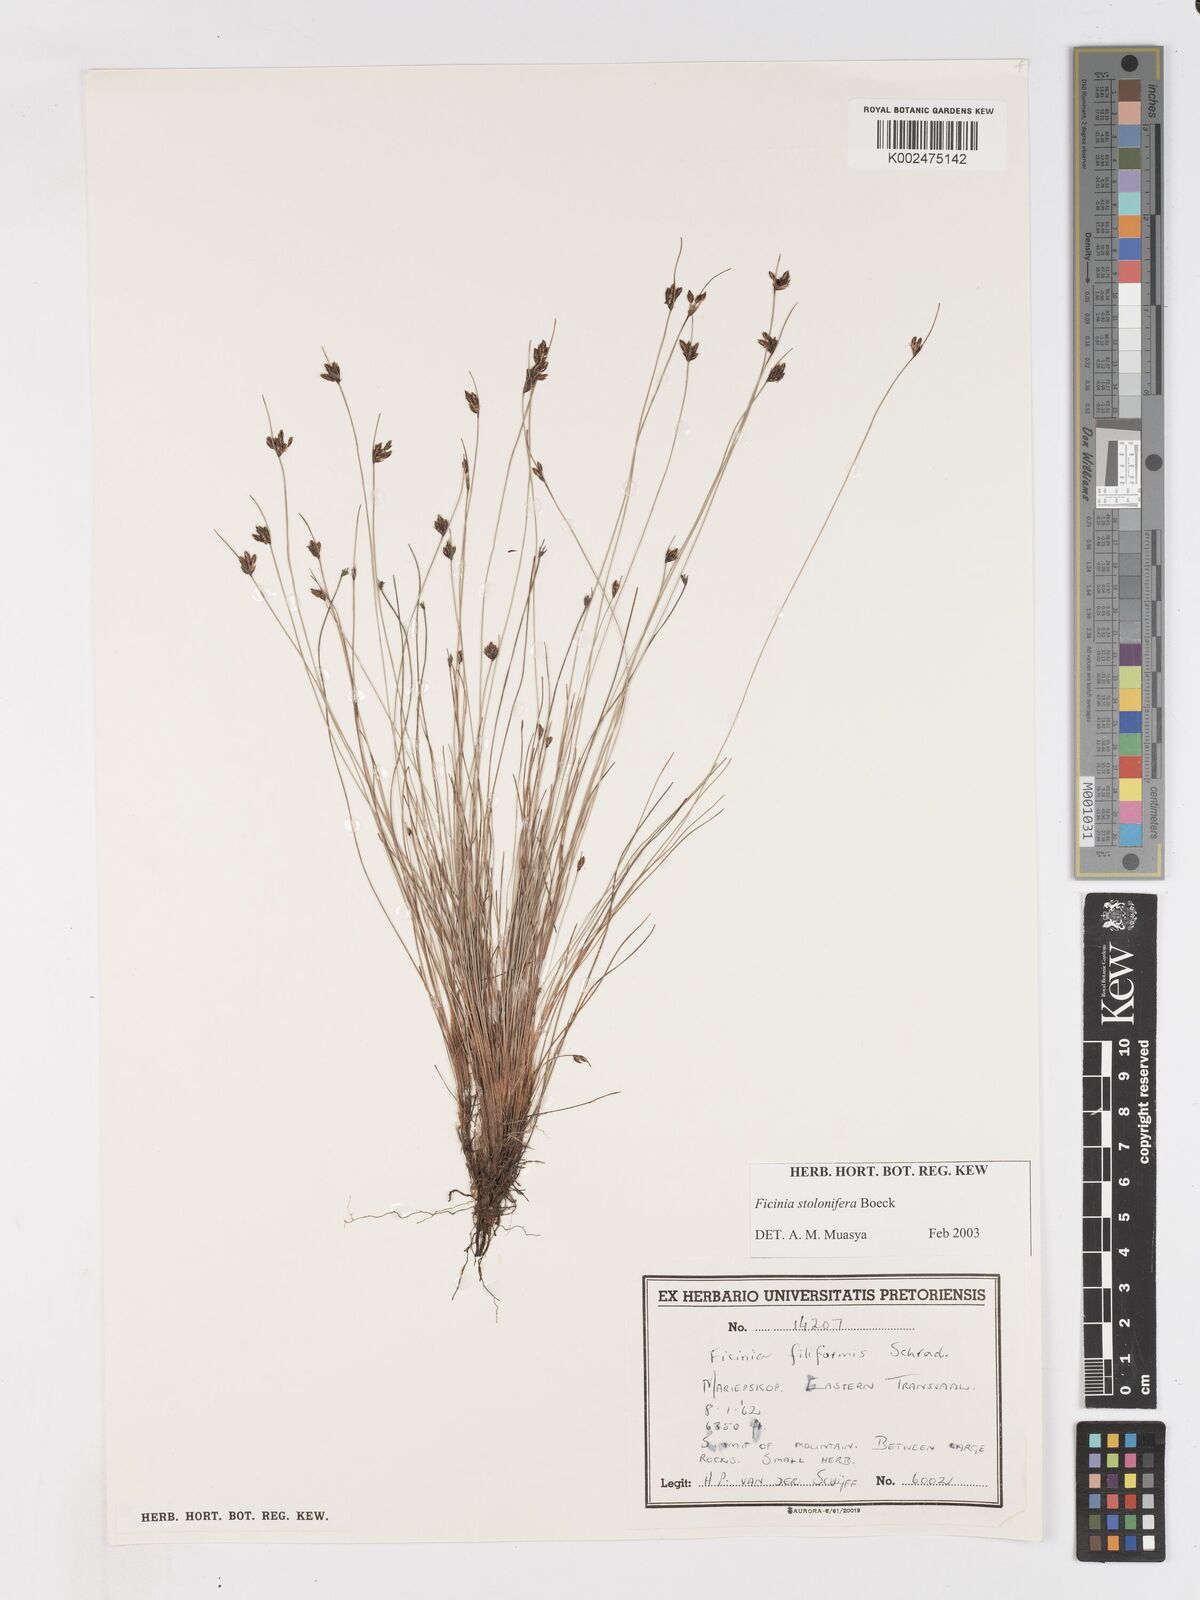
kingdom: Plantae
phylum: Tracheophyta
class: Liliopsida
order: Poales
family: Cyperaceae
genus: Ficinia
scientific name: Ficinia stolonifera
